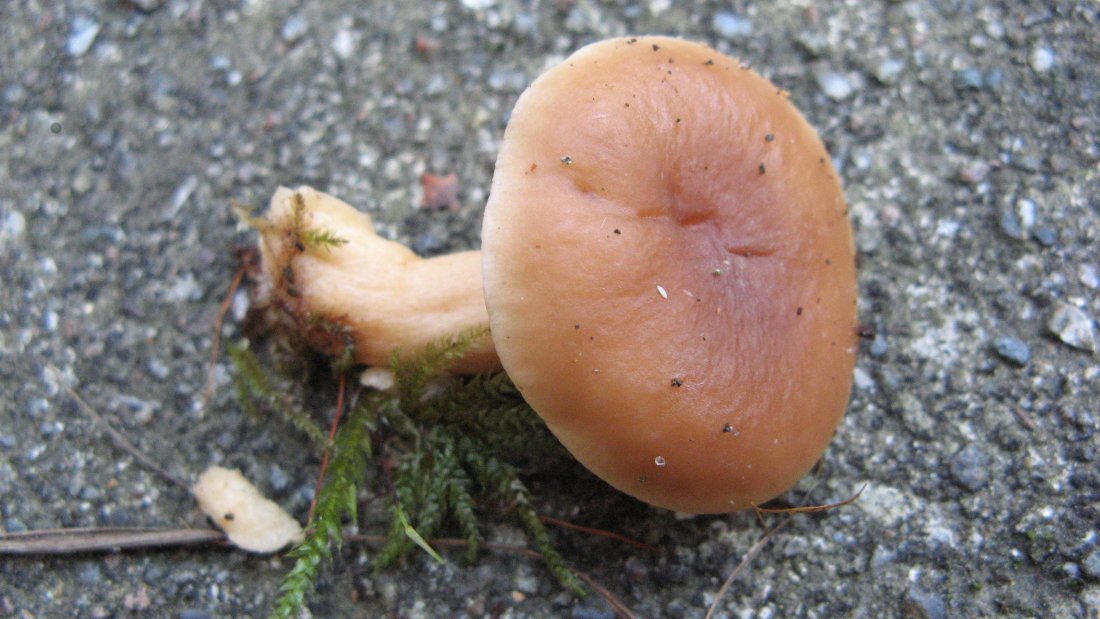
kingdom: Fungi
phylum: Basidiomycota
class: Agaricomycetes
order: Russulales
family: Russulaceae
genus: Lactarius
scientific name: Lactarius subdulcis
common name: sødlig mælkehat
